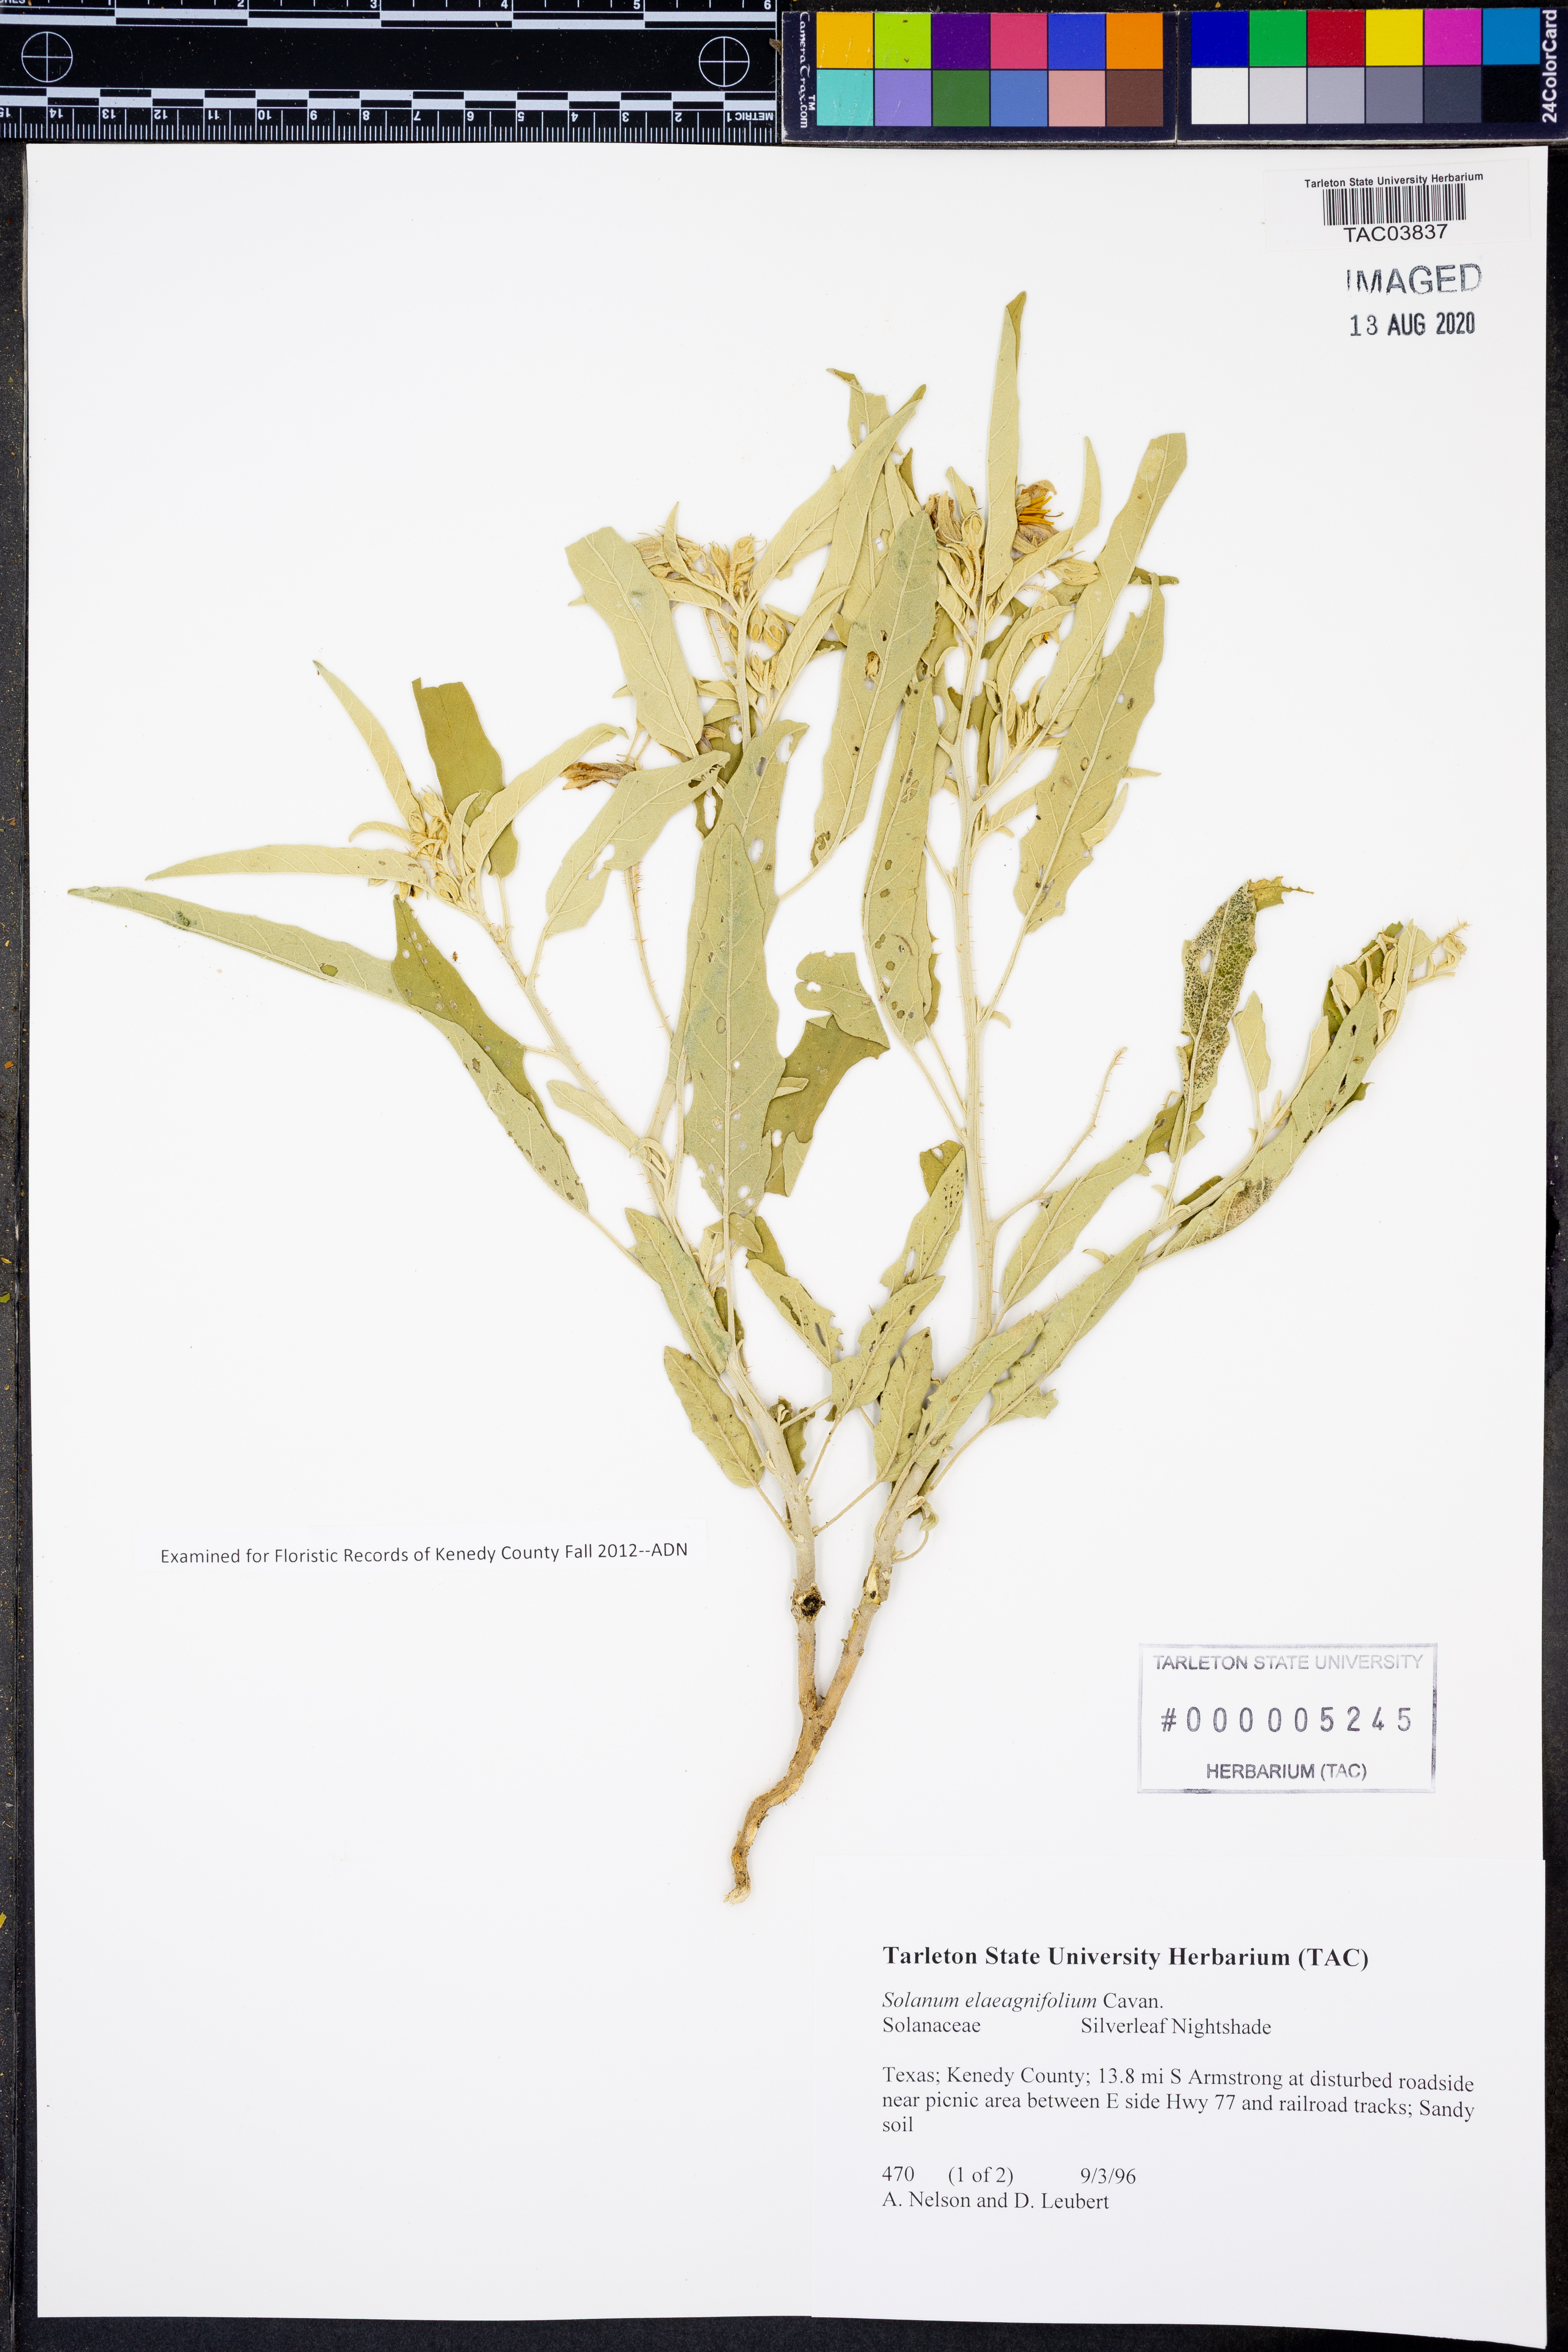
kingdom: Plantae
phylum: Tracheophyta
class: Magnoliopsida
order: Solanales
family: Solanaceae
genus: Solanum
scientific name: Solanum elaeagnifolium
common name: Silverleaf nightshade
